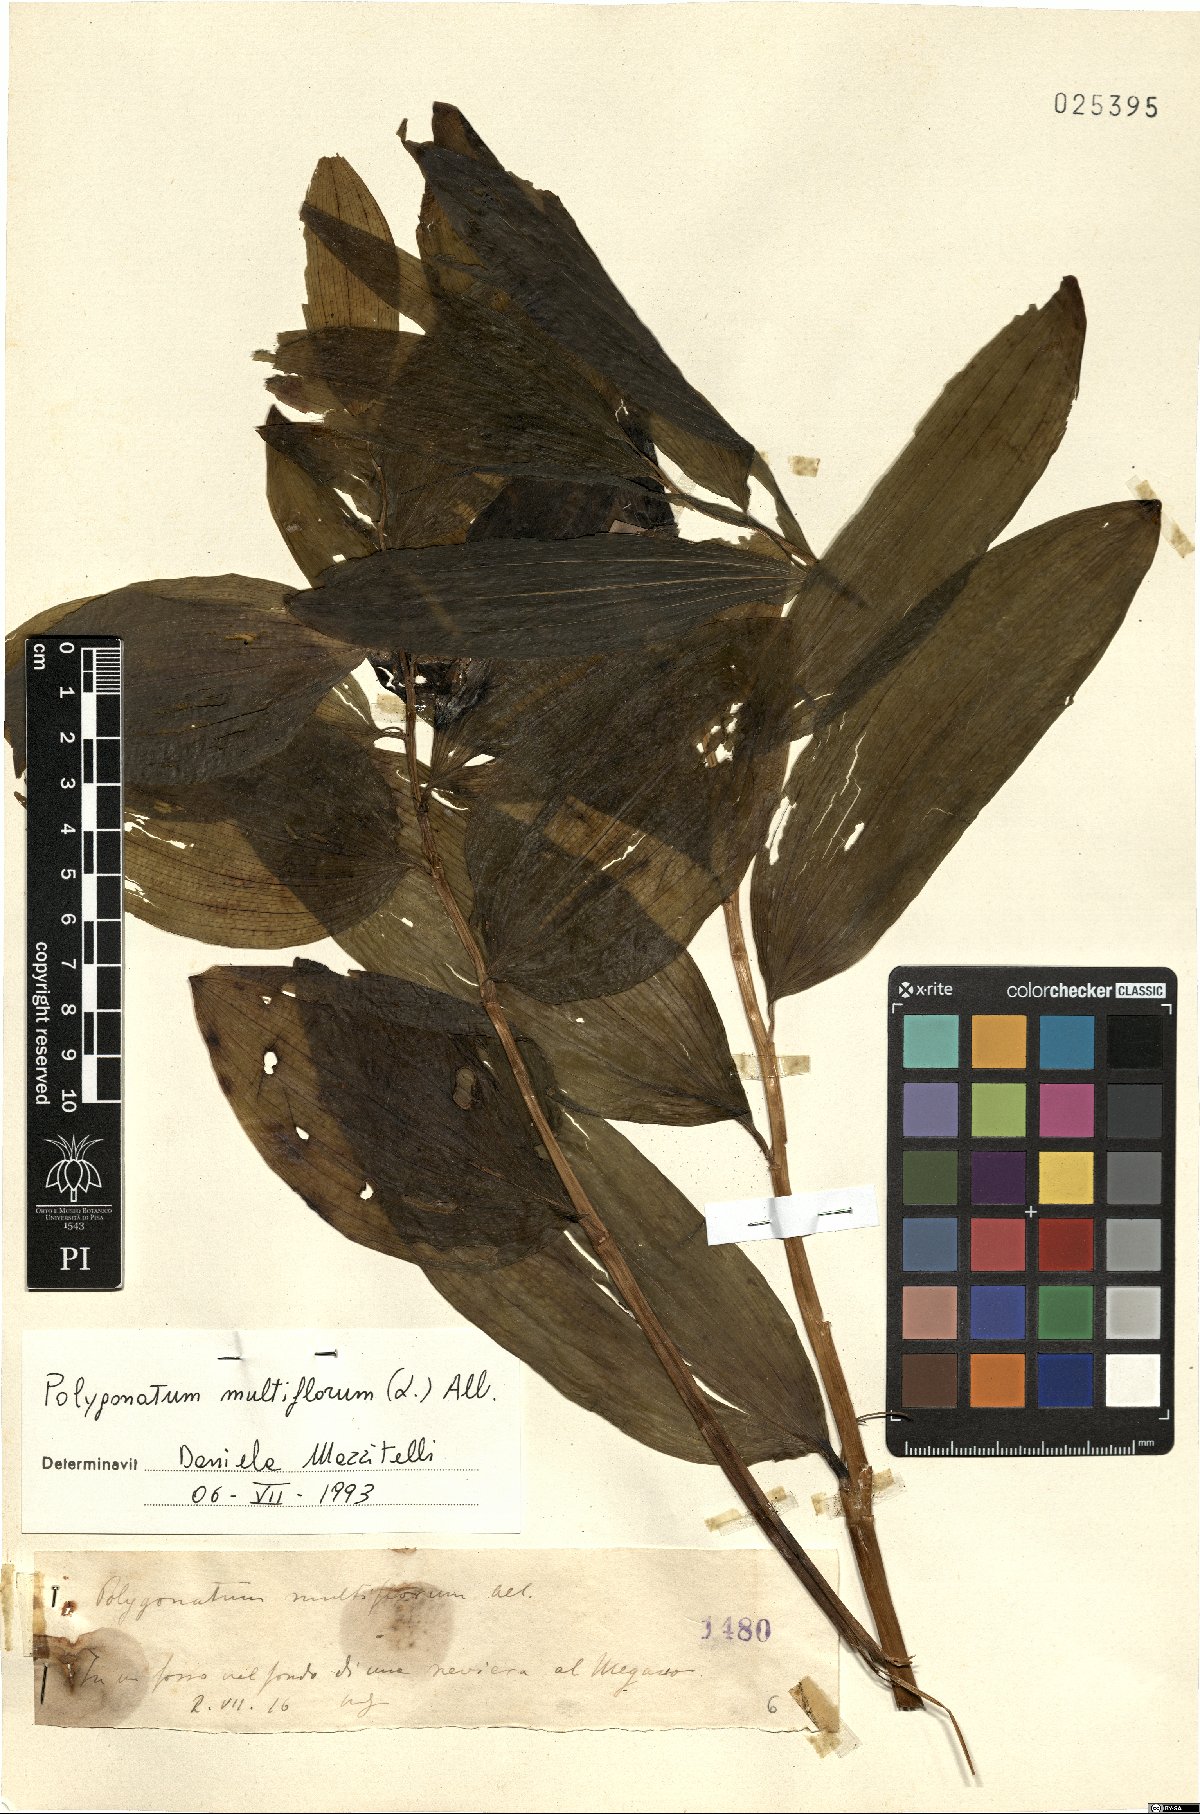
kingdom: Plantae
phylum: Tracheophyta
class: Liliopsida
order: Asparagales
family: Asparagaceae
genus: Polygonatum
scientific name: Polygonatum multiflorum
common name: Solomon's-seal
